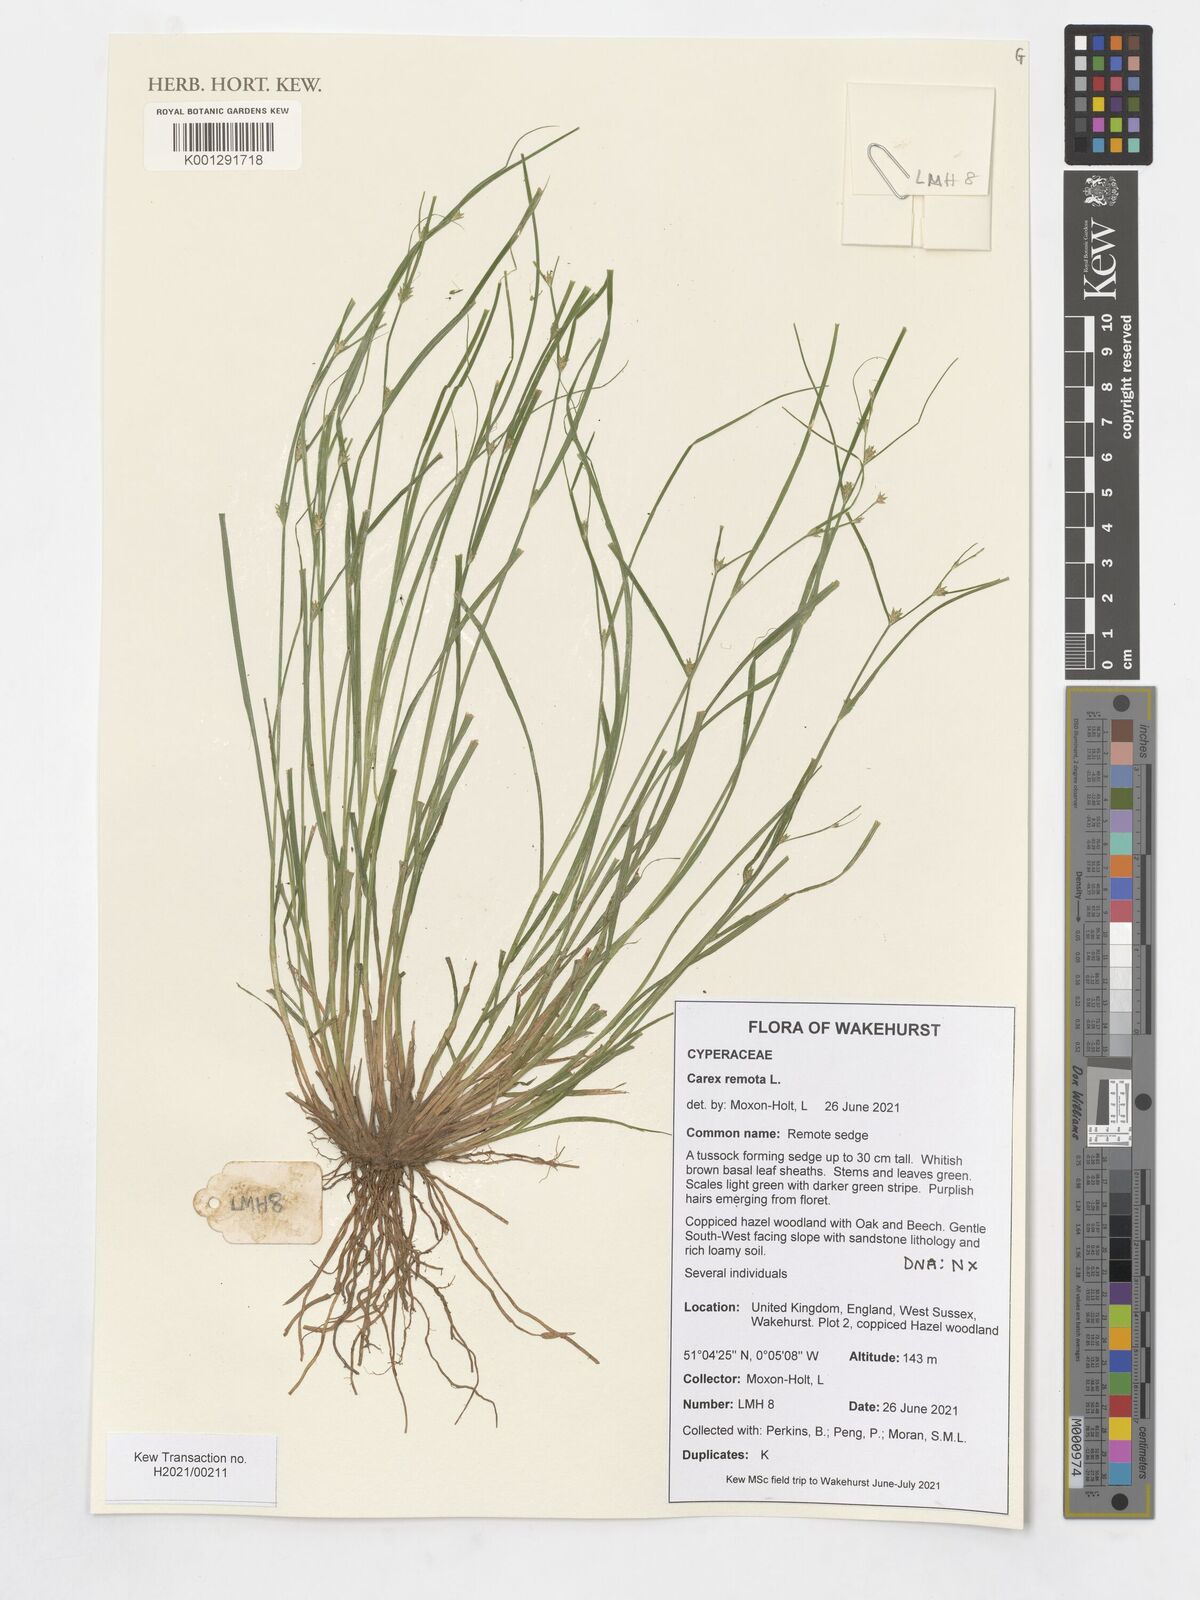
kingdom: Plantae
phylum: Tracheophyta
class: Liliopsida
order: Poales
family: Cyperaceae
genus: Carex
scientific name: Carex remota
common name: Remote sedge
